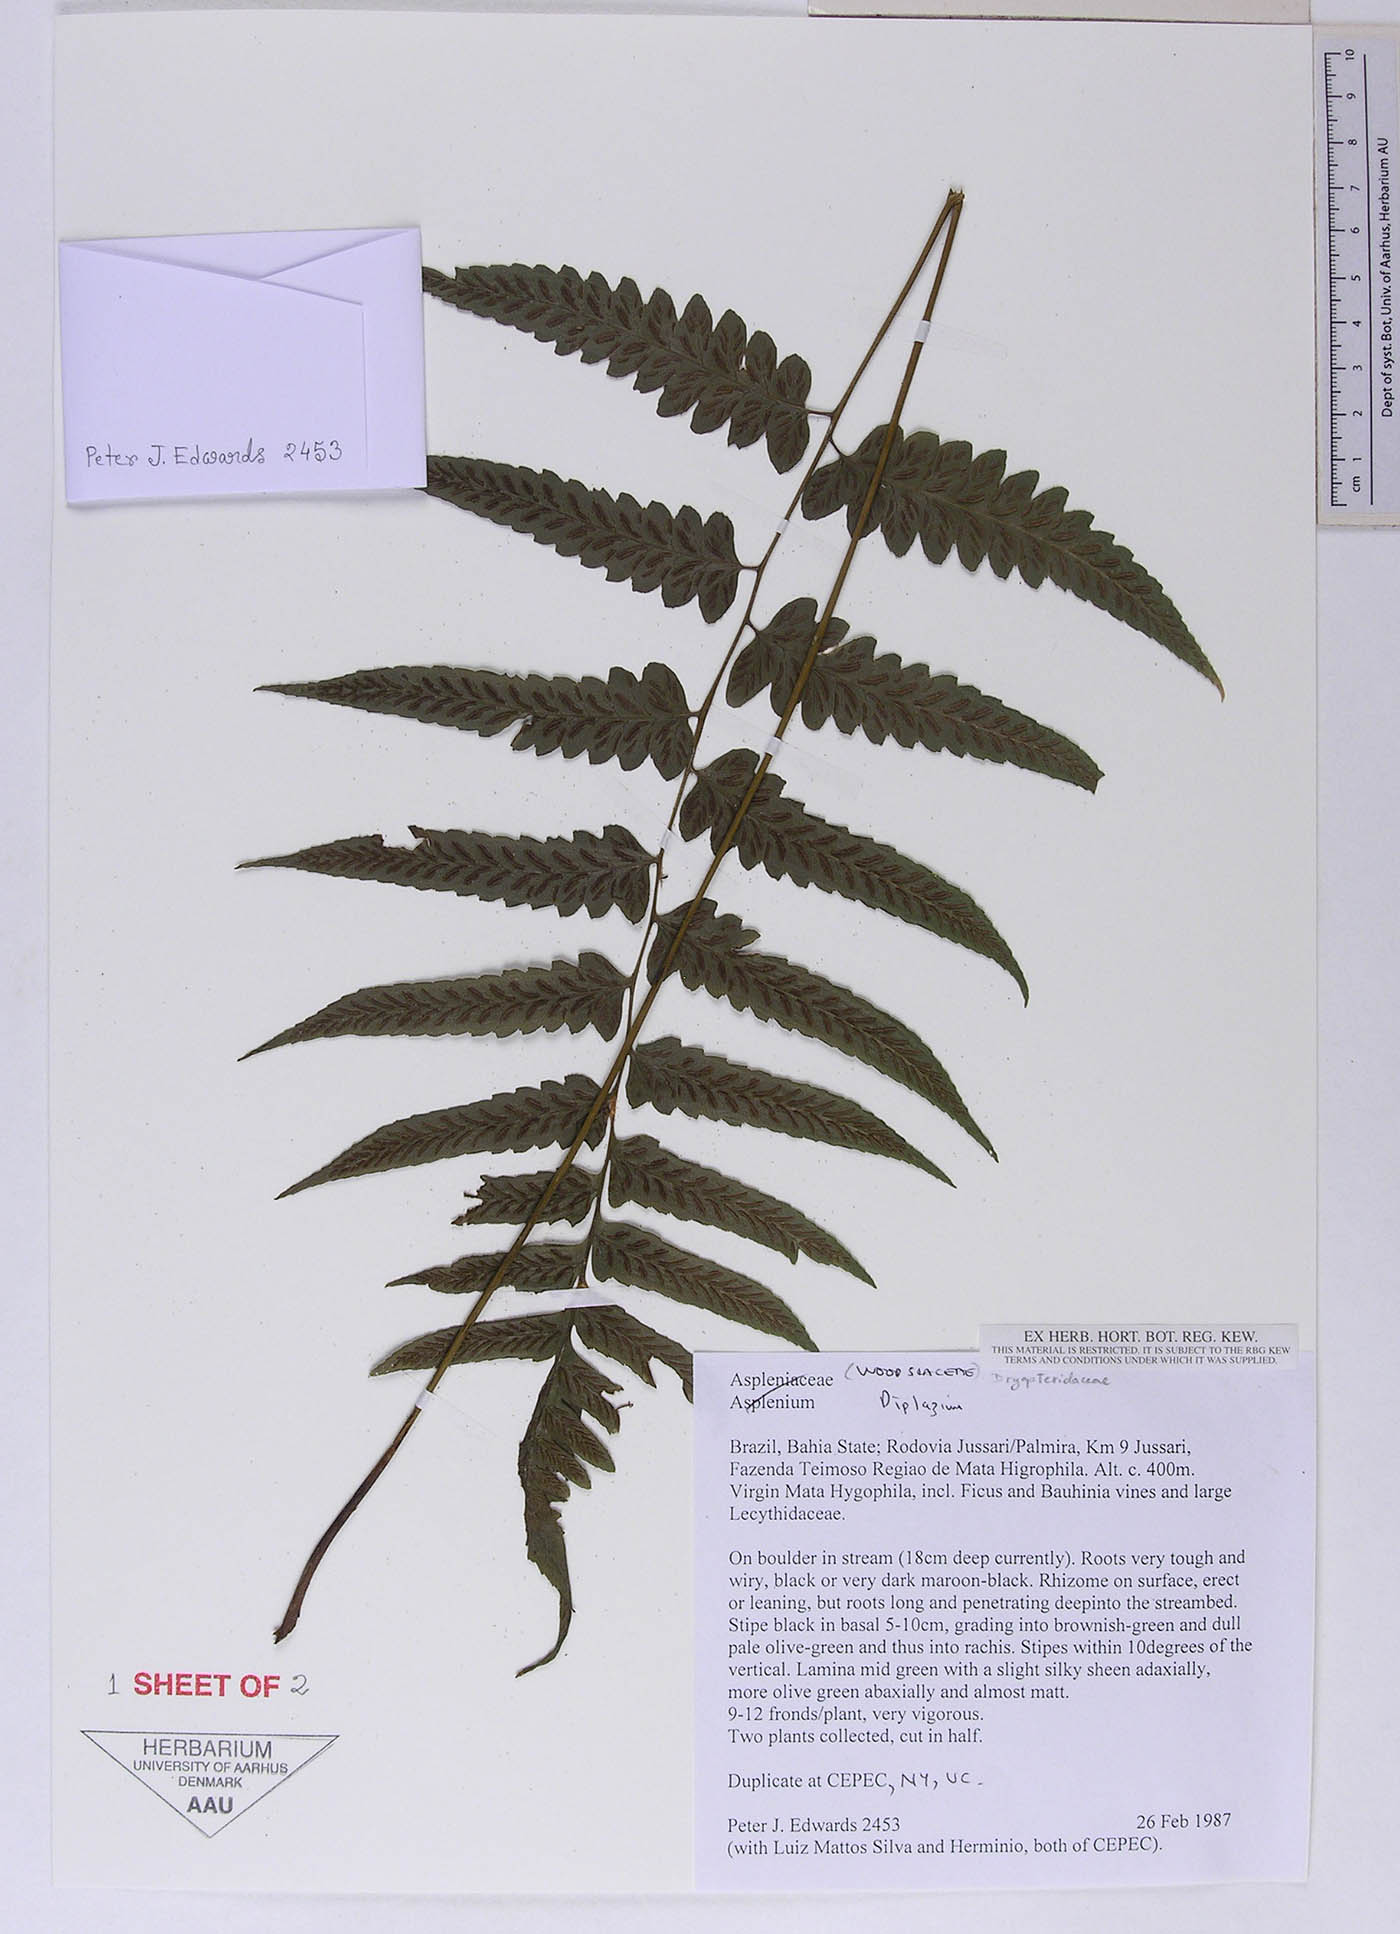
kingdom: Plantae
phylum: Tracheophyta
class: Polypodiopsida
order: Polypodiales
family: Athyriaceae
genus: Diplazium
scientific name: Diplazium cristatum
